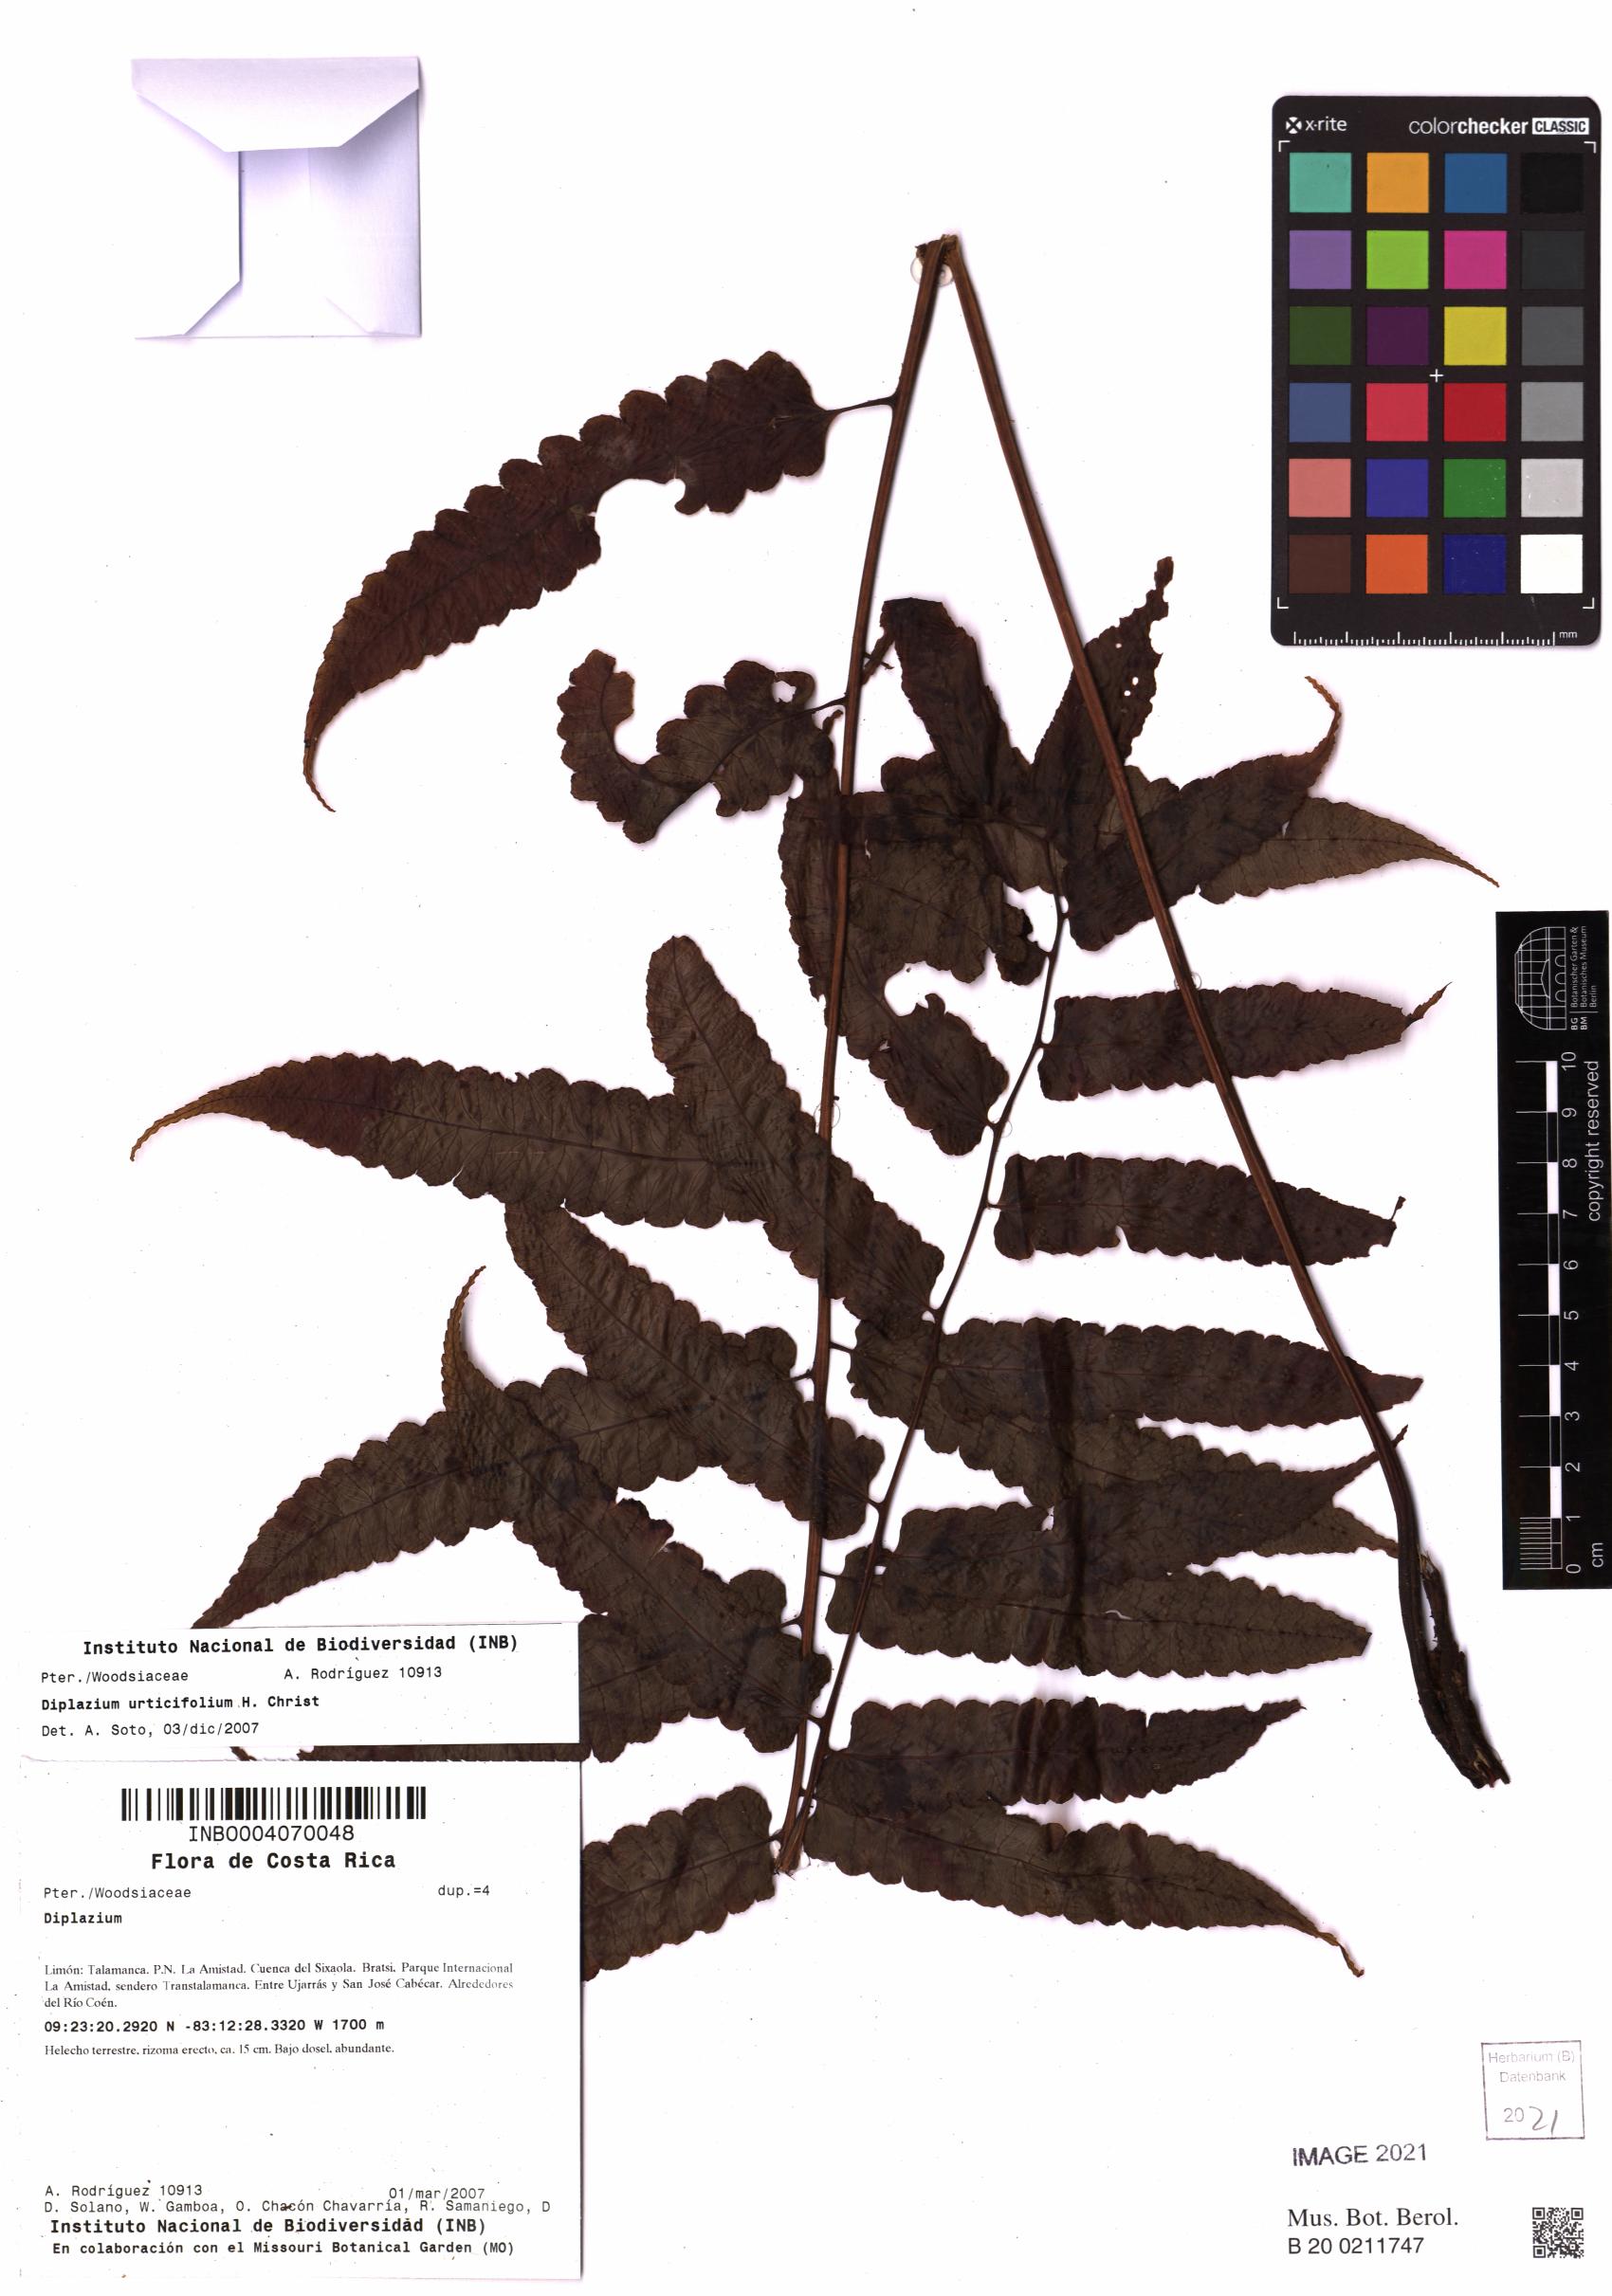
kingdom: Plantae
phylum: Tracheophyta
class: Polypodiopsida
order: Polypodiales
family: Athyriaceae
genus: Diplazium
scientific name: Diplazium urticifolium
